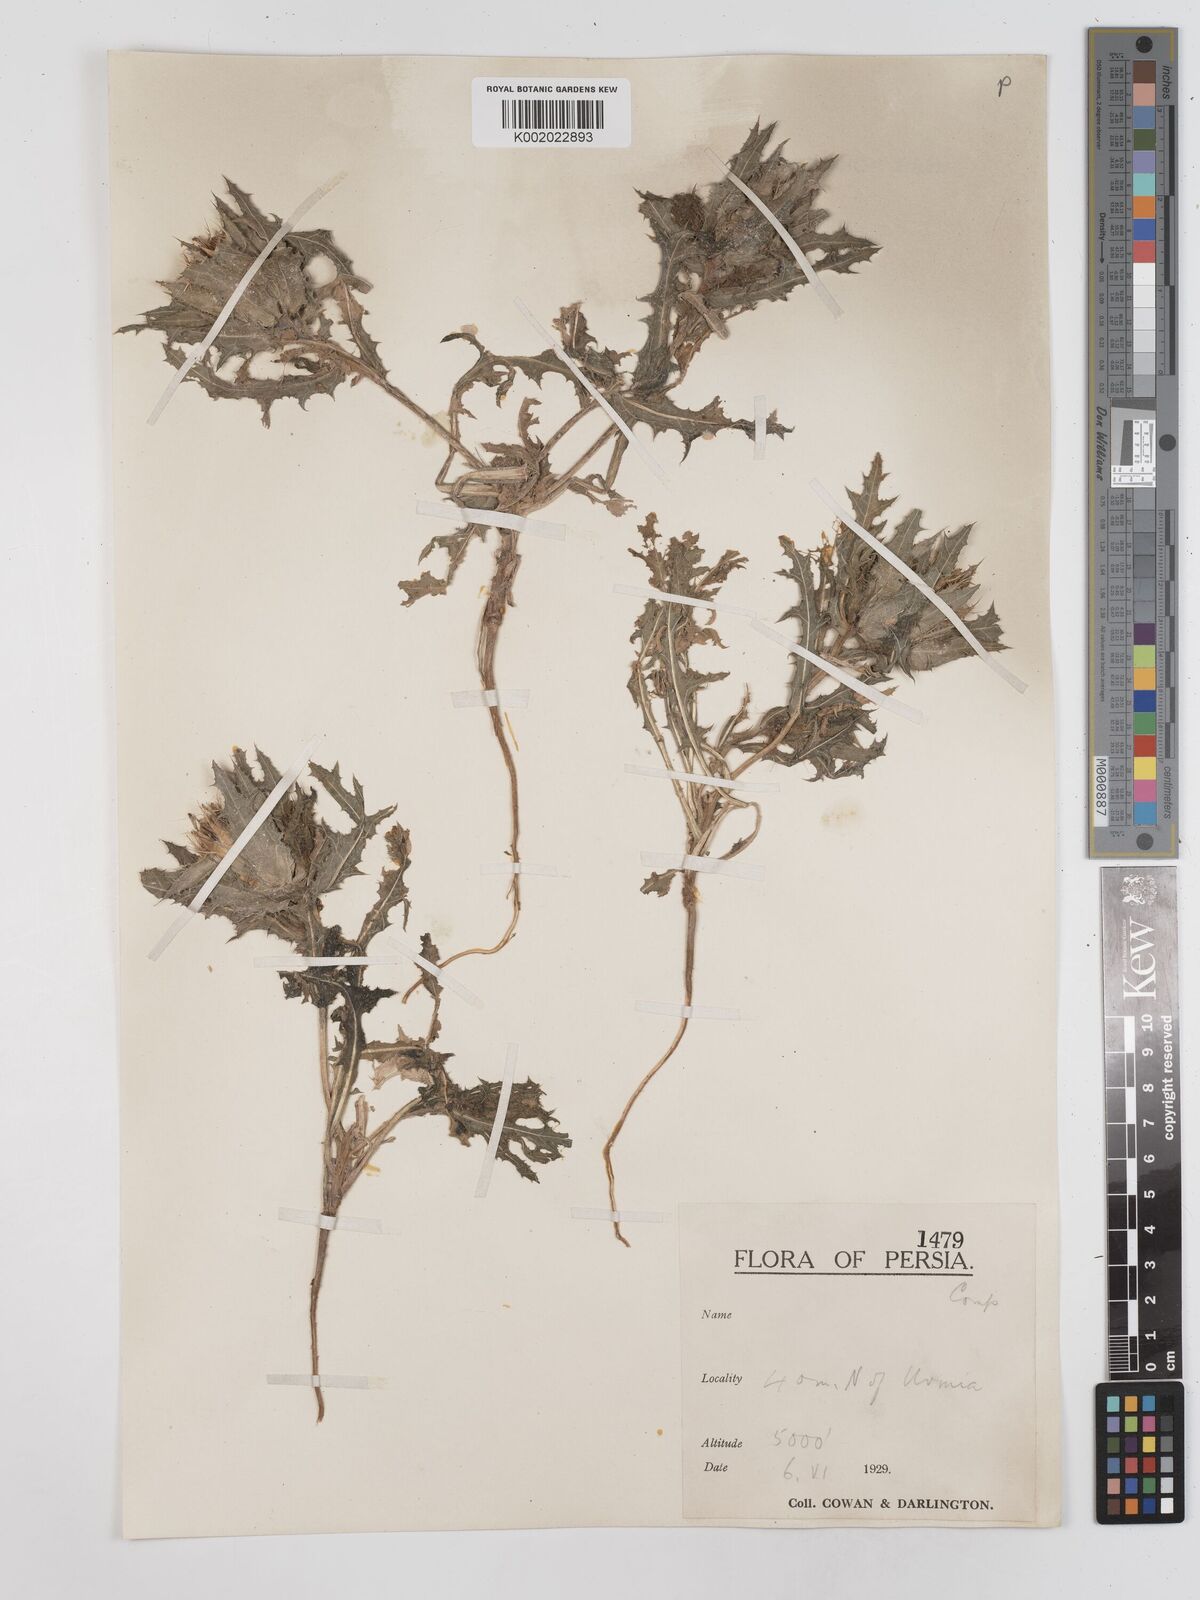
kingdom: Plantae
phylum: Tracheophyta
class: Magnoliopsida
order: Asterales
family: Asteraceae
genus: Centaurea
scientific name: Centaurea benedicta
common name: Blessed thistle
